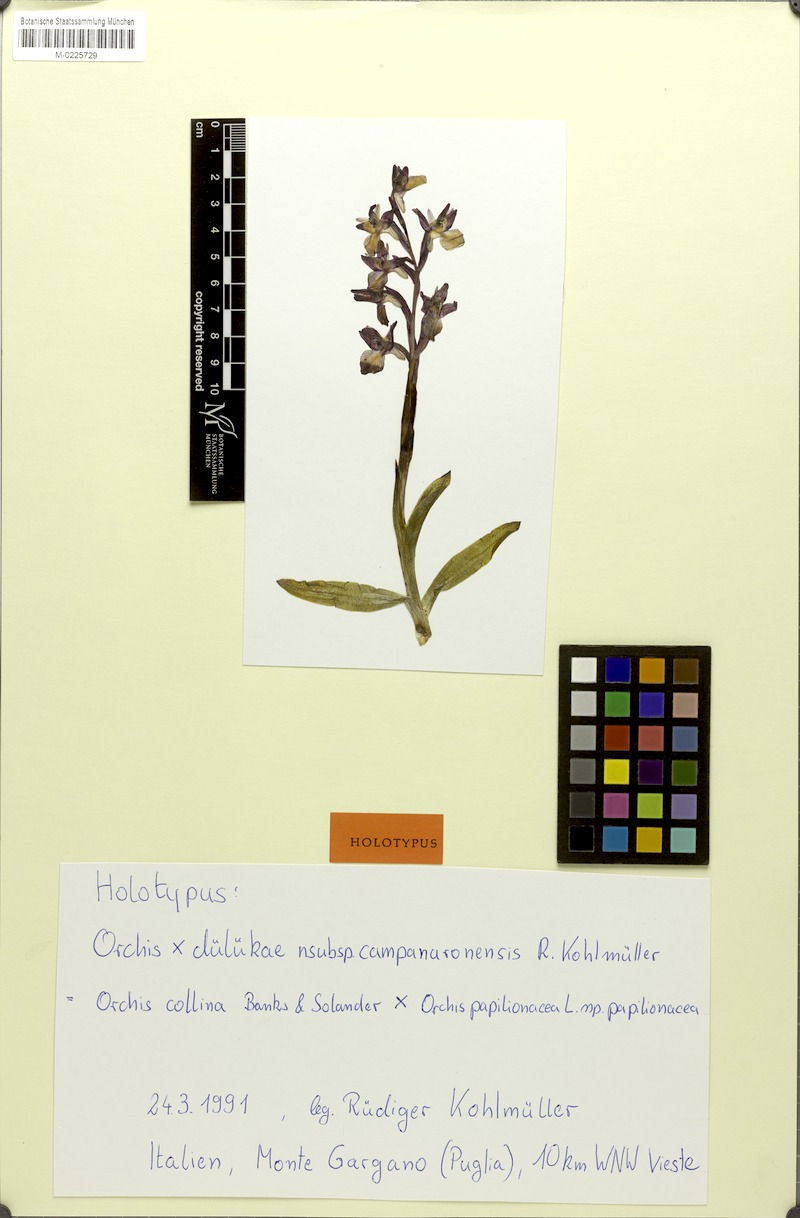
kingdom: Plantae
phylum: Tracheophyta
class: Liliopsida
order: Asparagales
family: Orchidaceae
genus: Anacamptis
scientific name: Anacamptis dafnii
